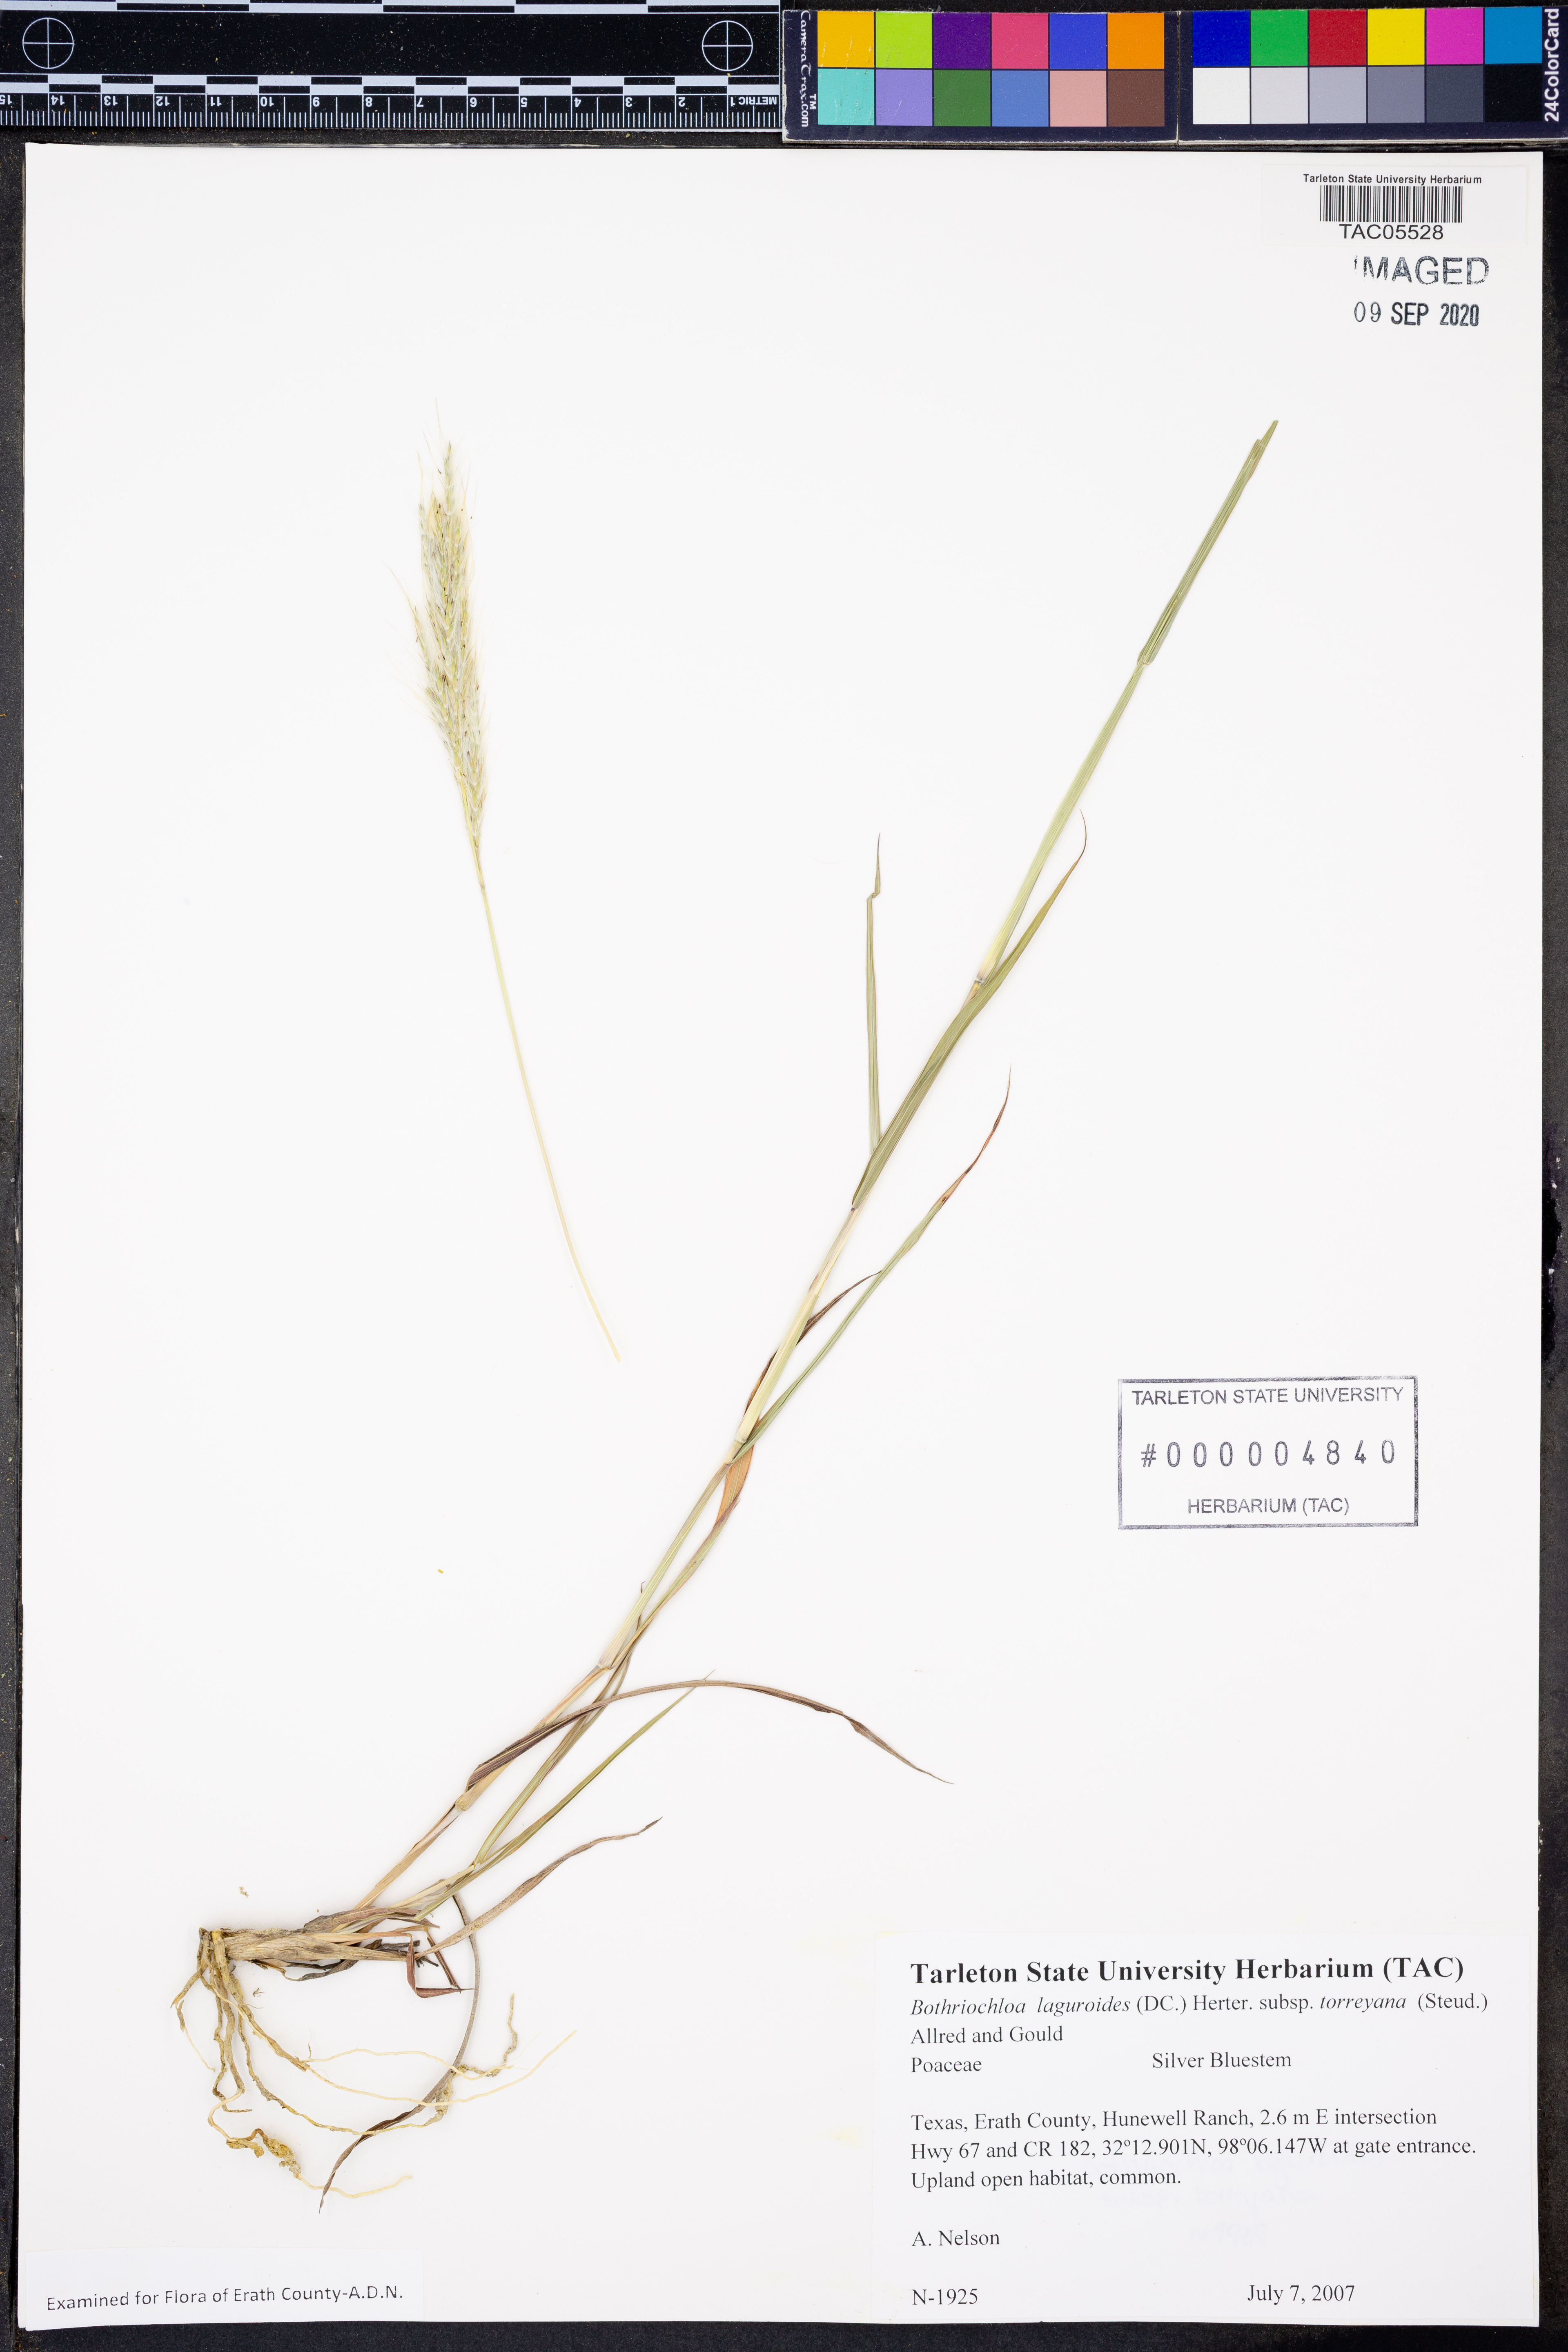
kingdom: Plantae
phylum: Tracheophyta
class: Liliopsida
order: Poales
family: Poaceae
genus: Bothriochloa
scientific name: Bothriochloa torreyana
